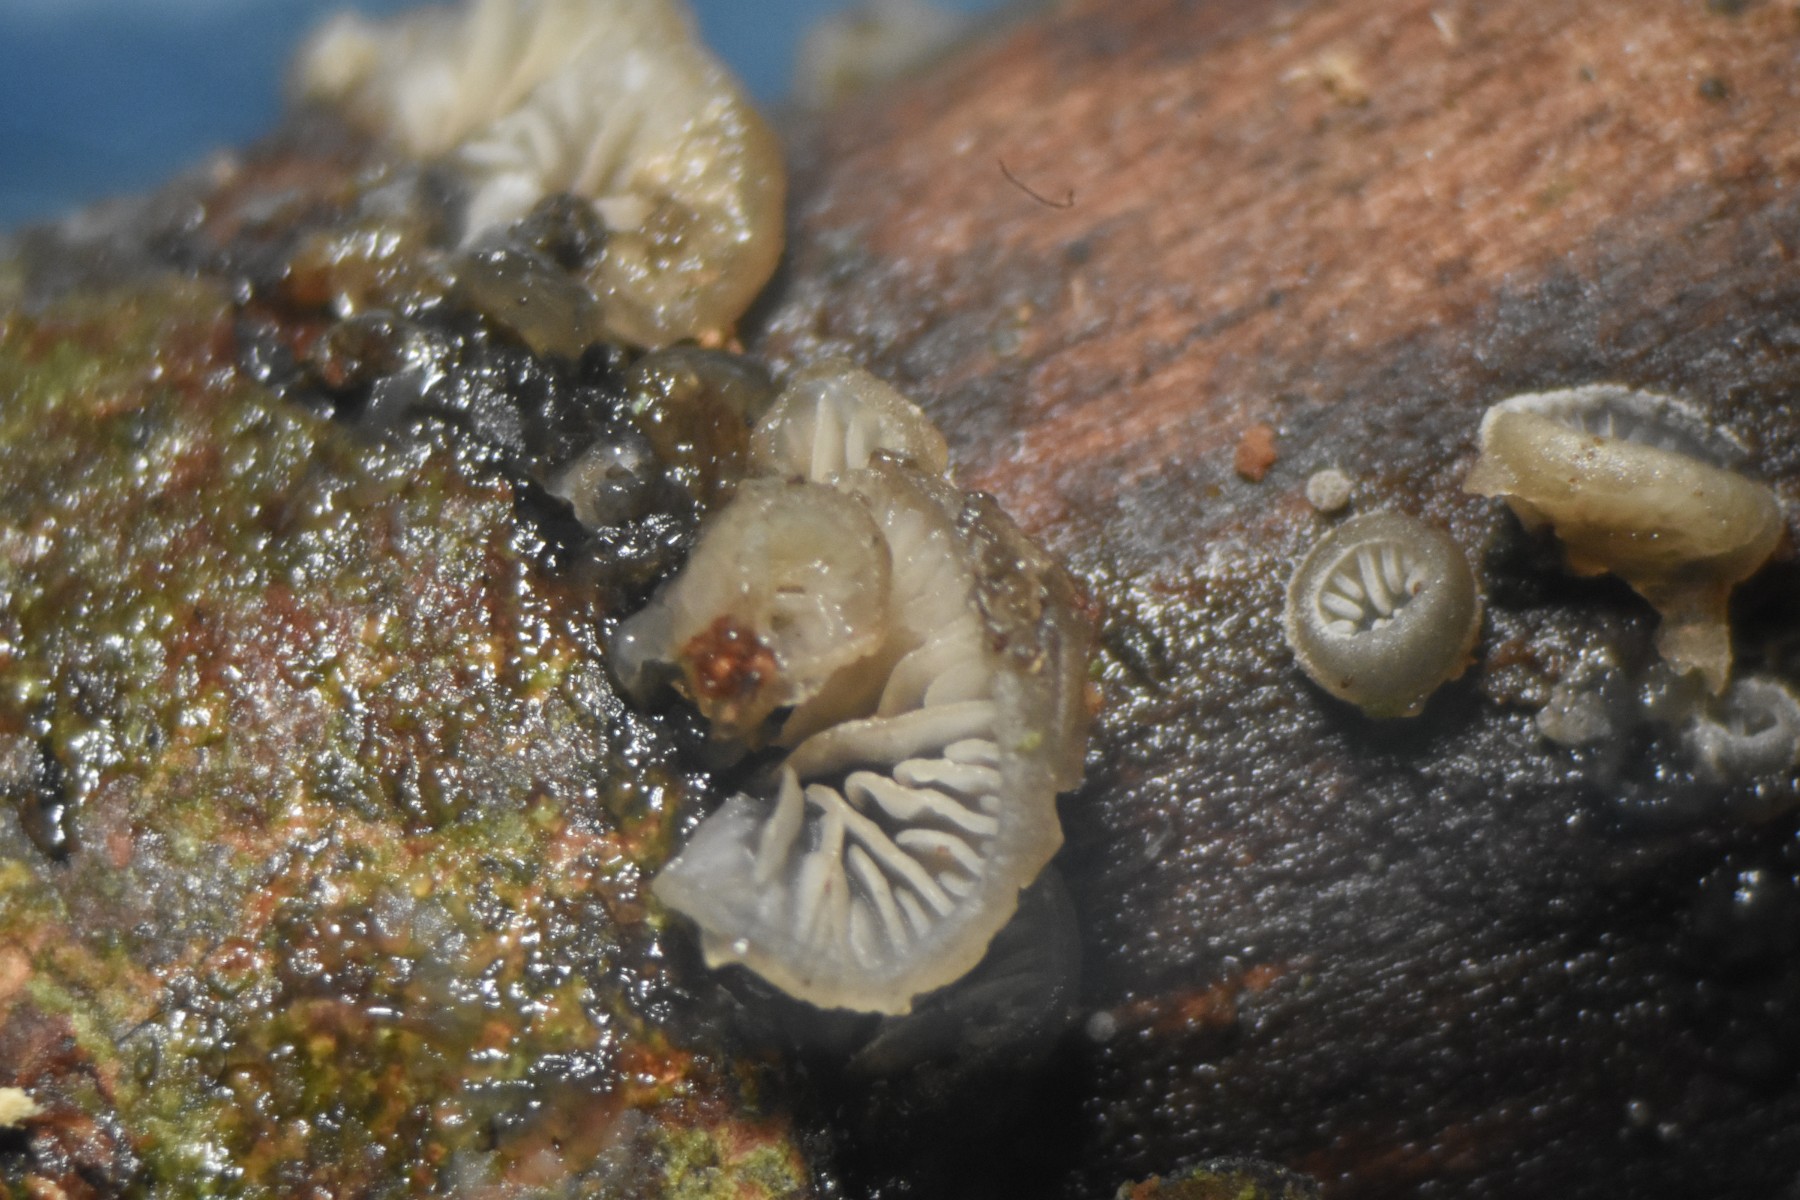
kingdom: Fungi
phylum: Basidiomycota
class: Agaricomycetes
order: Agaricales
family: Pleurotaceae
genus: Resupinatus
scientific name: Resupinatus applicatus
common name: lysfiltet barkhat
